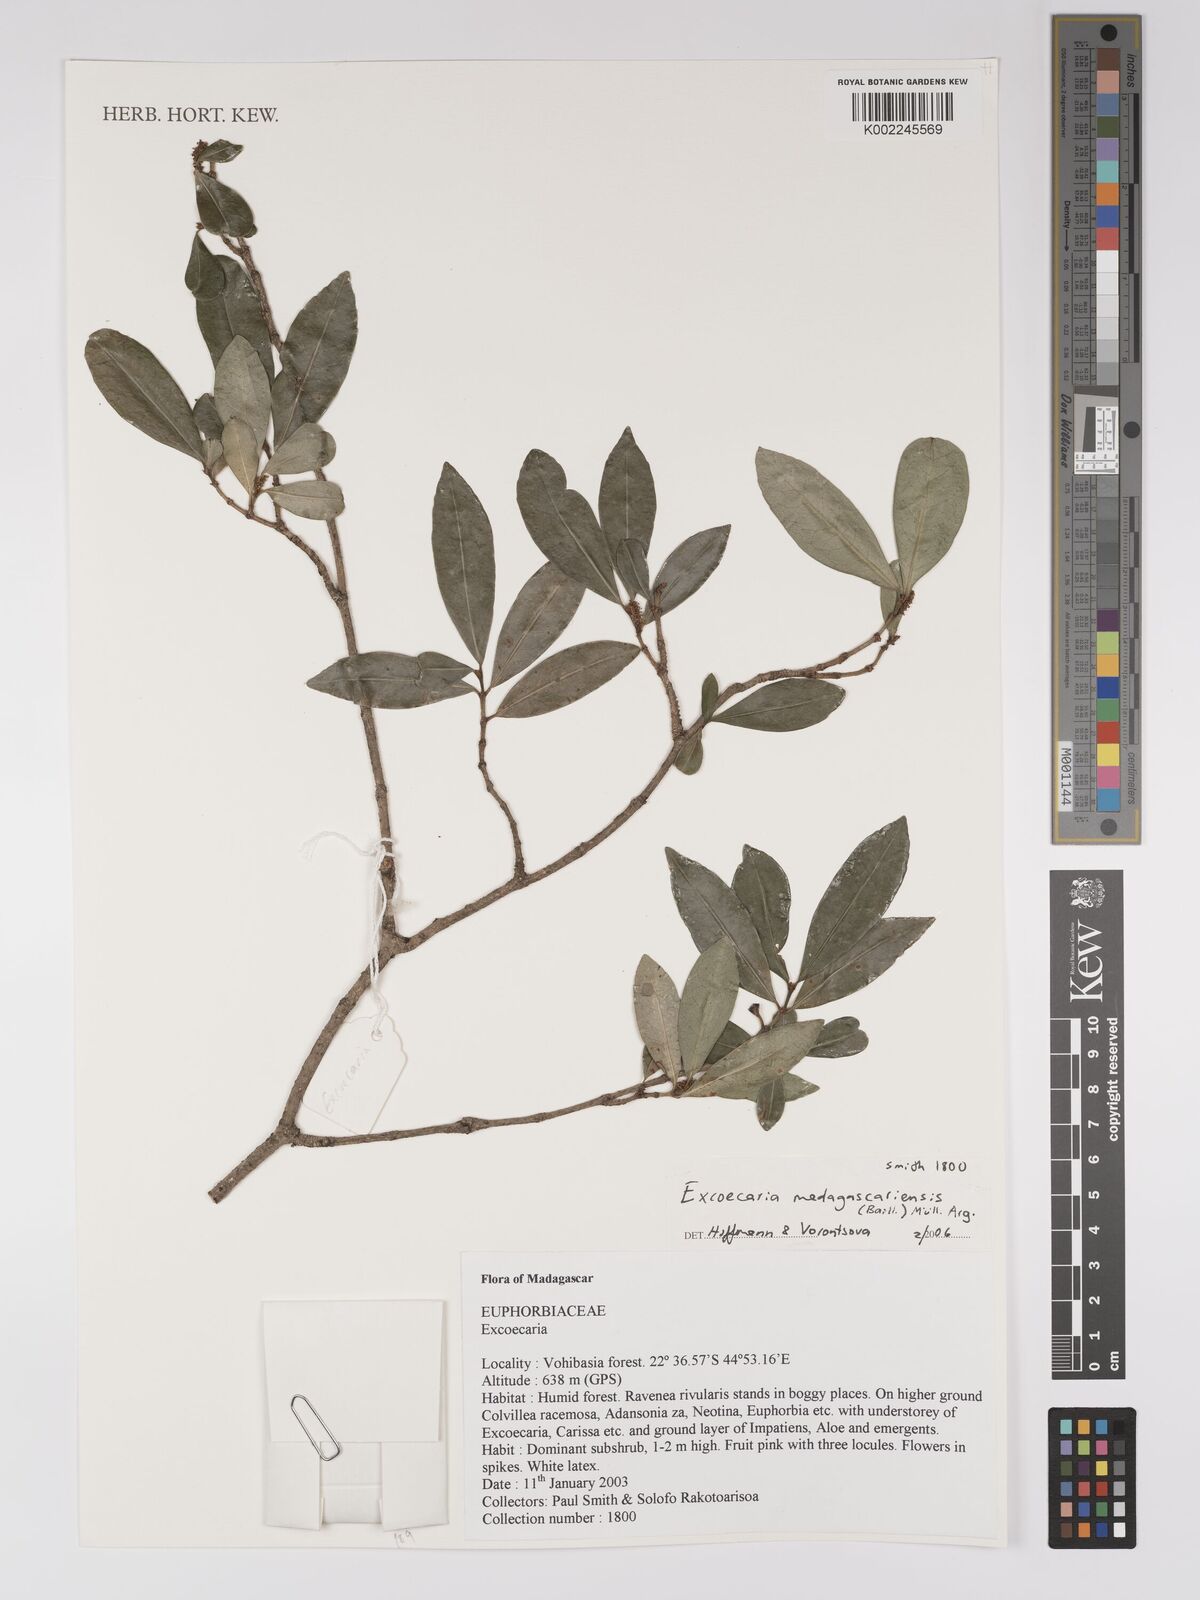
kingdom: Plantae
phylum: Tracheophyta
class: Magnoliopsida
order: Malpighiales
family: Euphorbiaceae
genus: Excoecaria
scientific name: Excoecaria madagascariensis
